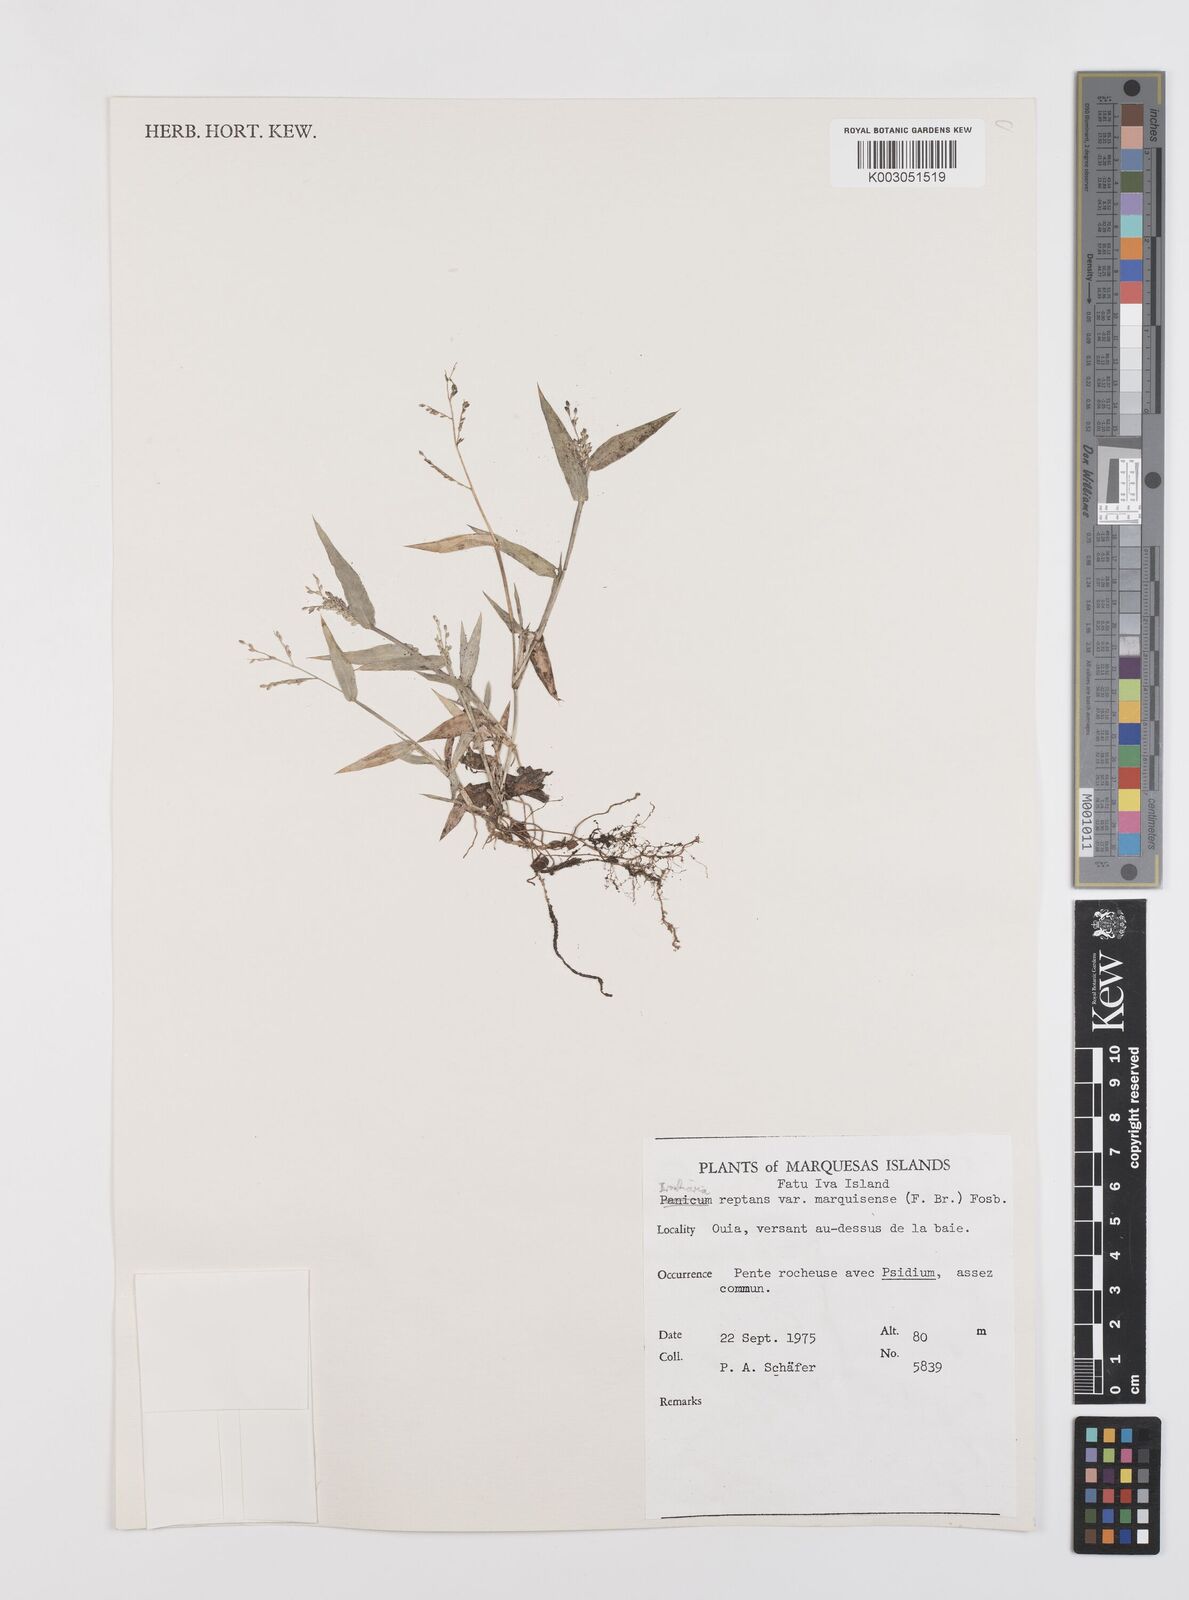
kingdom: Plantae
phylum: Tracheophyta
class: Liliopsida
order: Poales
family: Poaceae
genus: Urochloa
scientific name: Urochloa reptans
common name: Sprawling signalgrass
